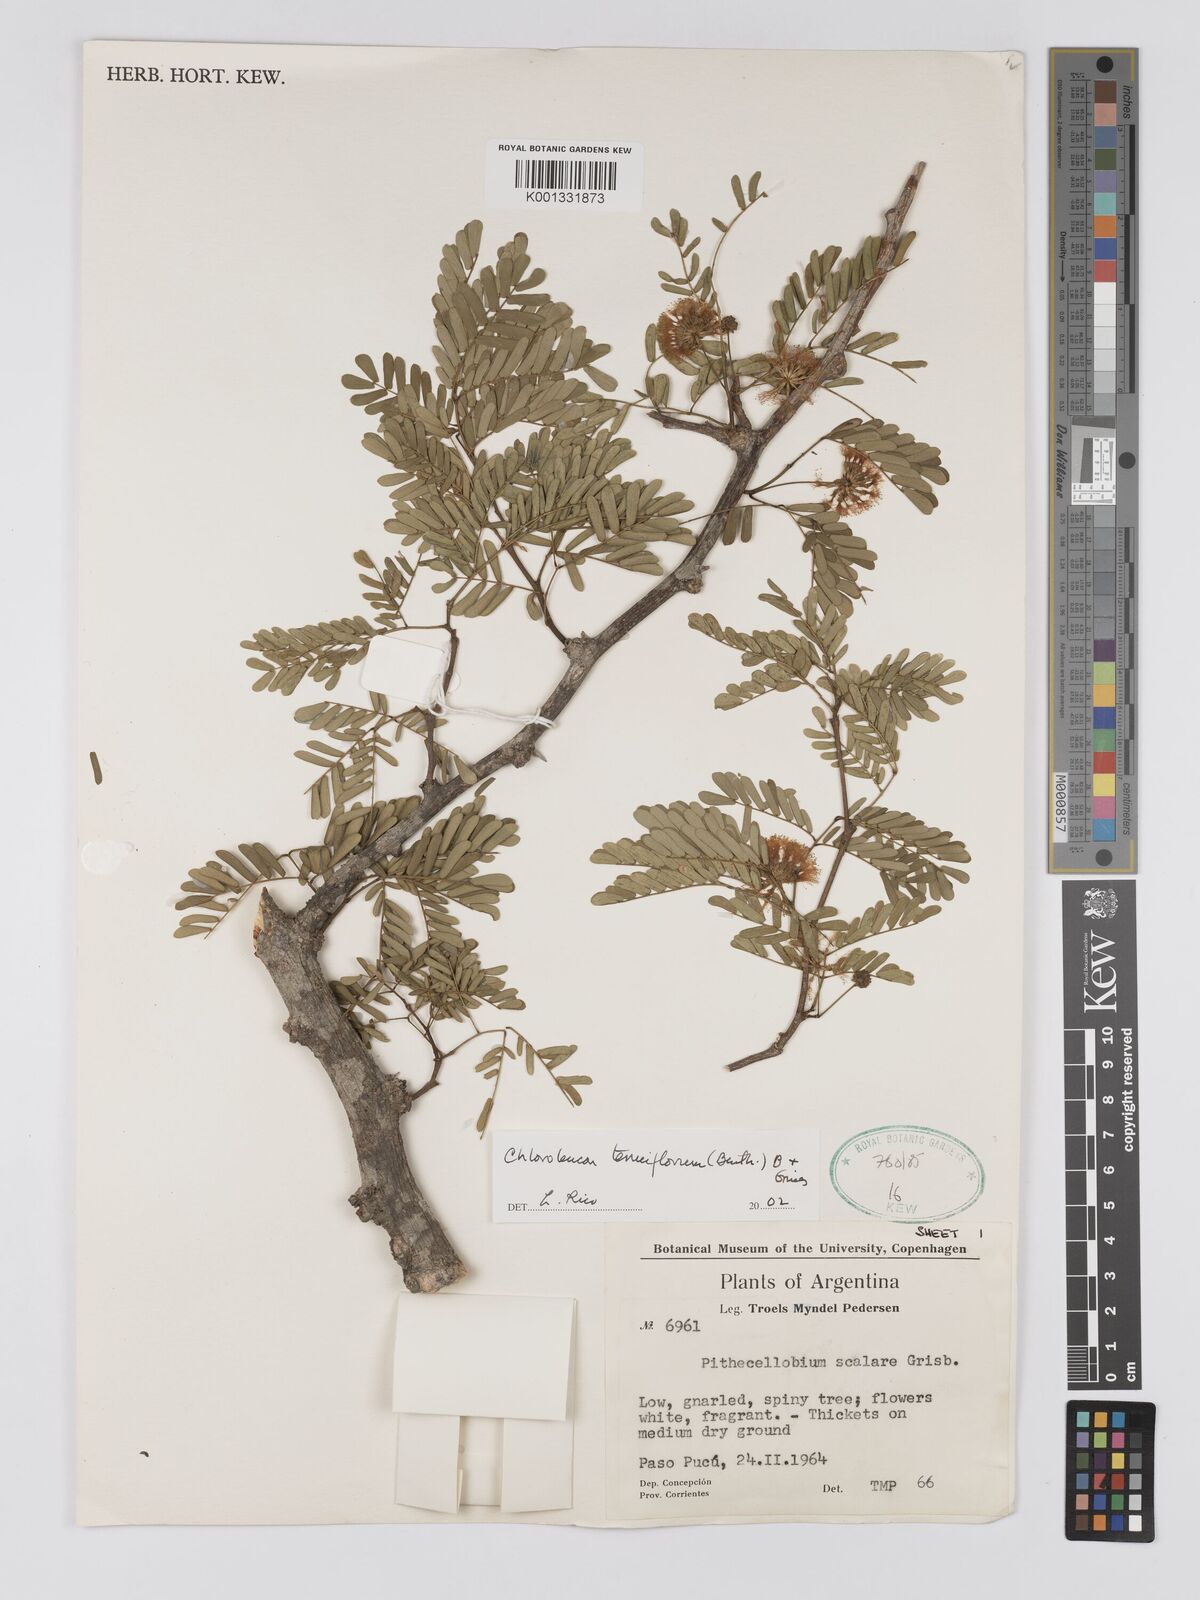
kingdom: Plantae
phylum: Tracheophyta
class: Magnoliopsida
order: Fabales
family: Fabaceae
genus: Chloroleucon
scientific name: Chloroleucon tenuiflorum
